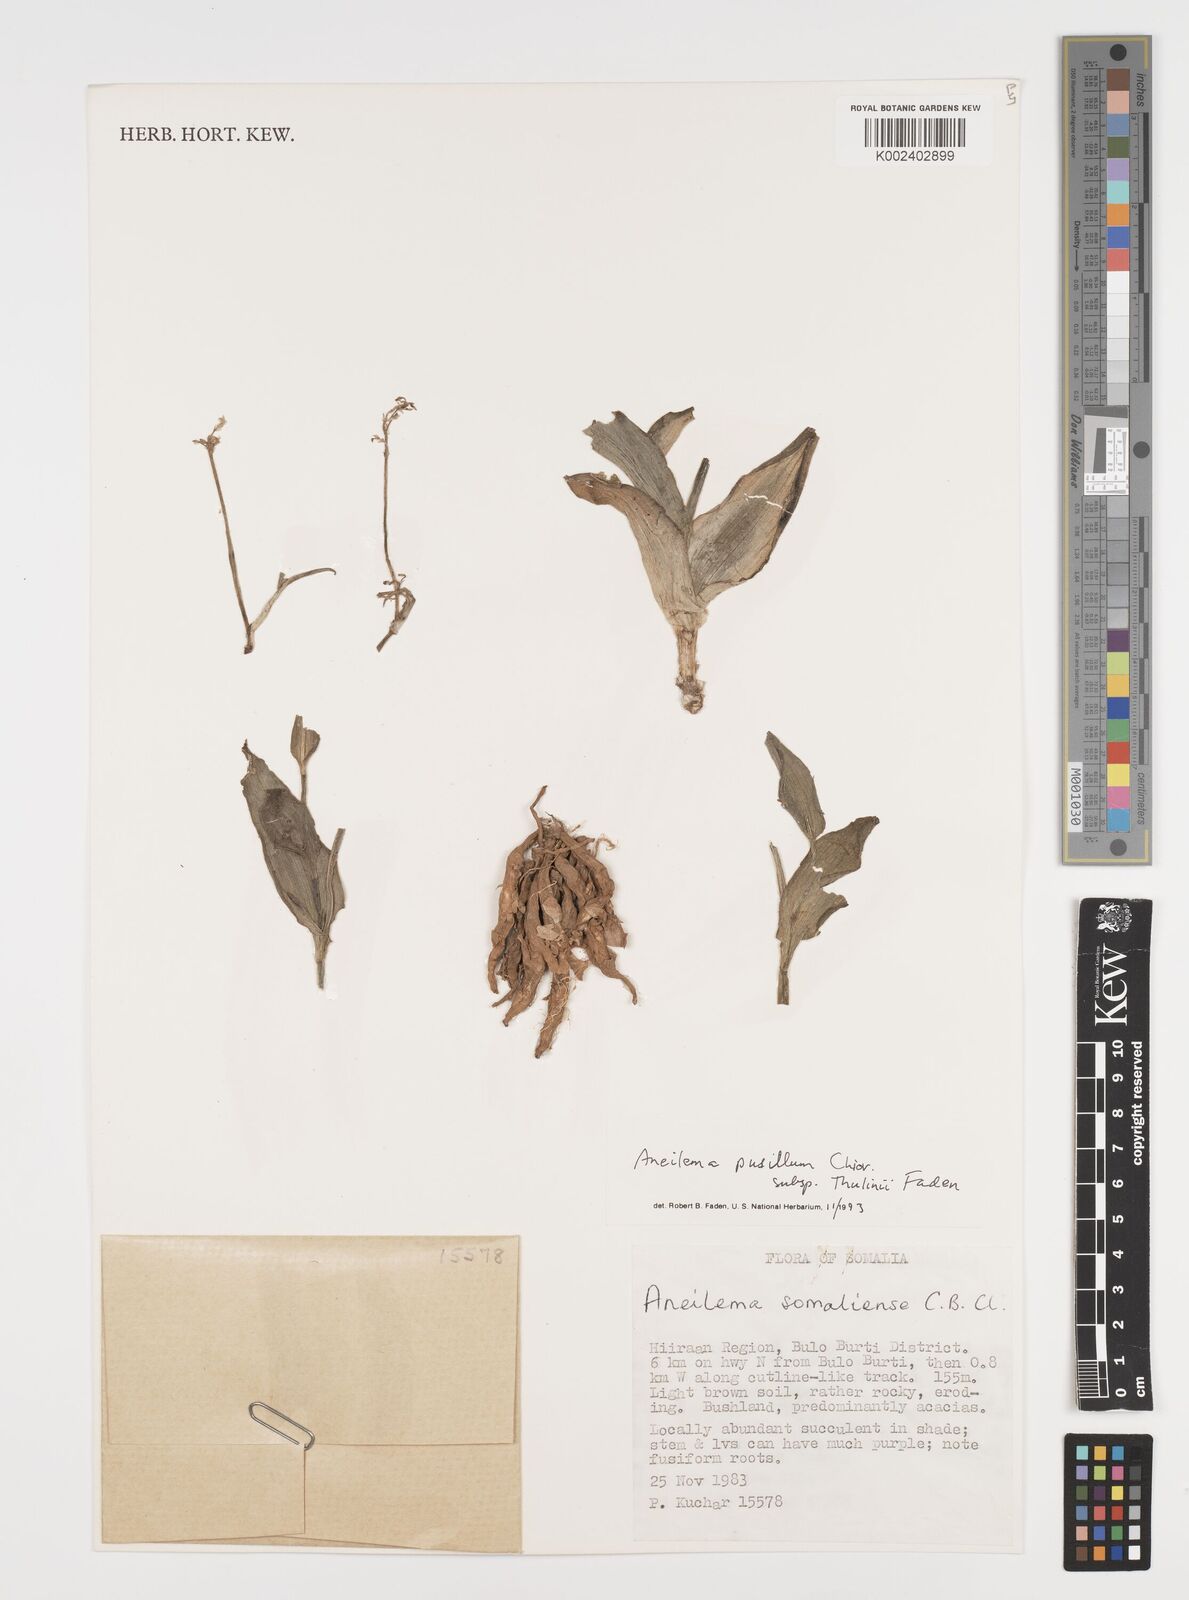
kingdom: Plantae
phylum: Tracheophyta
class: Liliopsida
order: Commelinales
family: Commelinaceae
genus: Aneilema
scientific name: Aneilema pusillum
